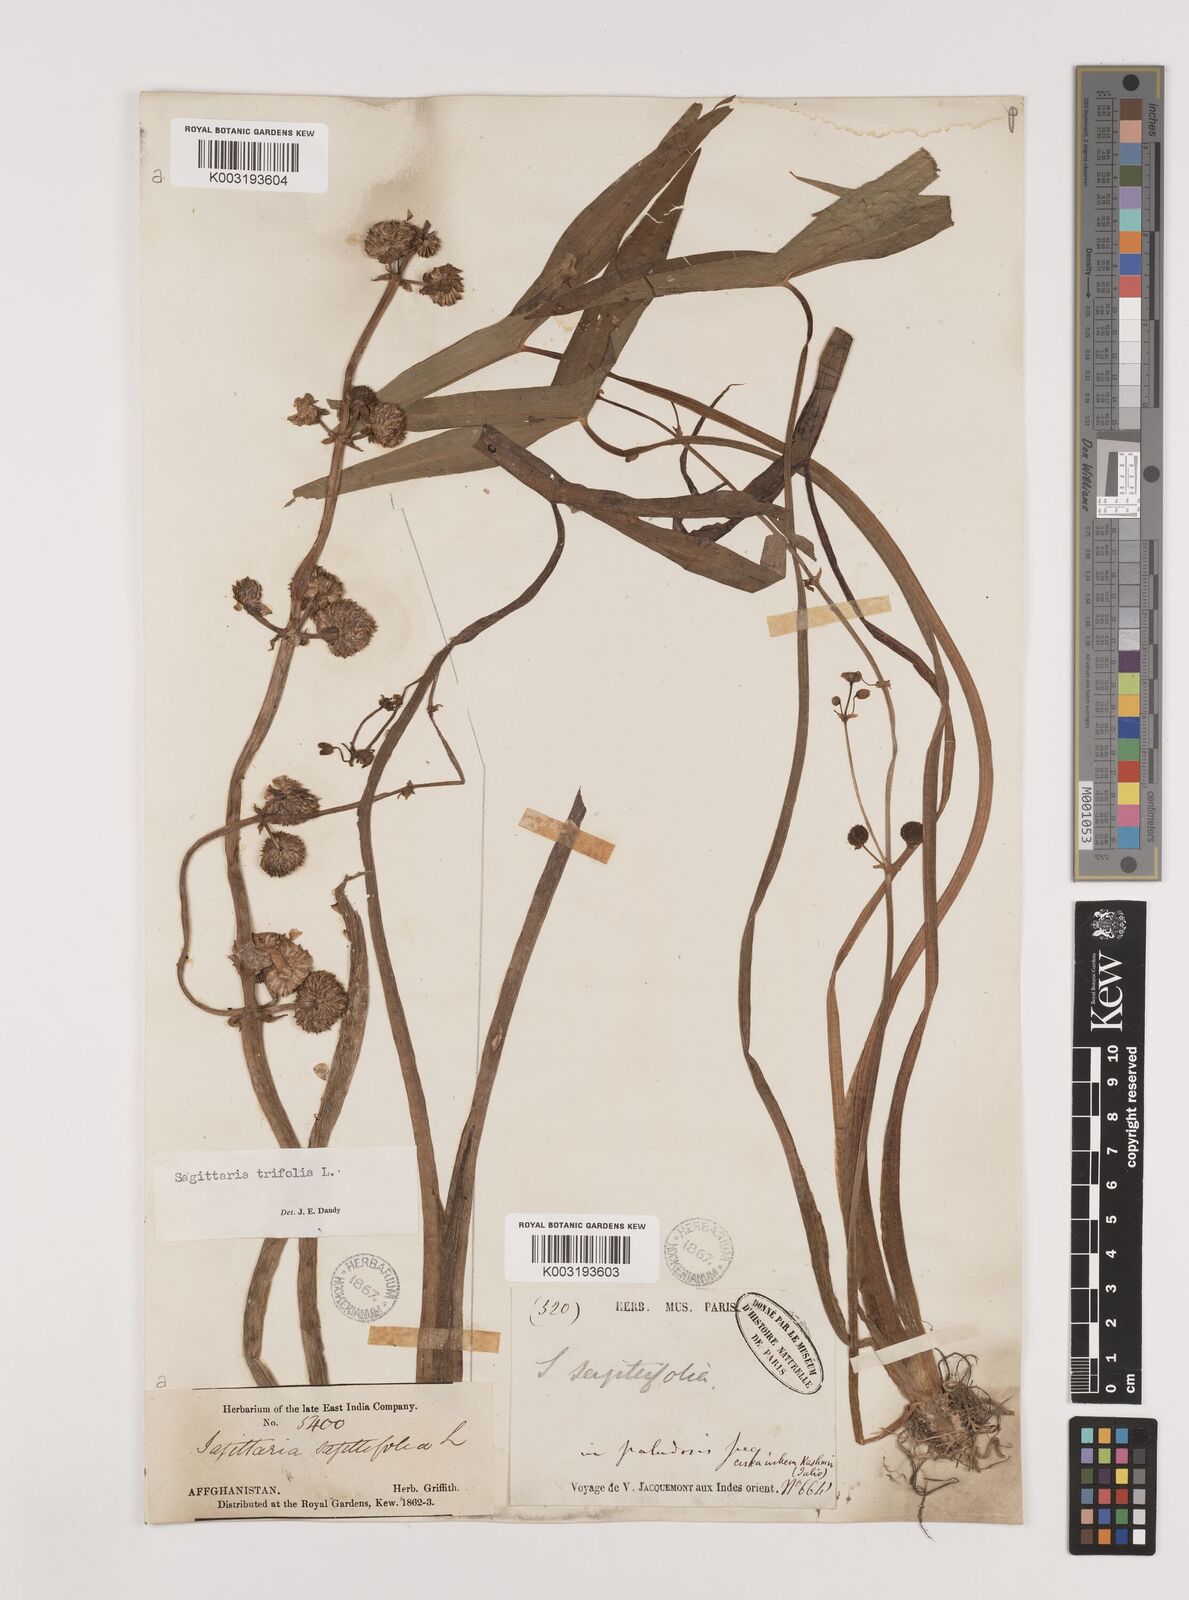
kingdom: Plantae
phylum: Tracheophyta
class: Liliopsida
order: Alismatales
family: Alismataceae
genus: Sagittaria
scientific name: Sagittaria sagittifolia
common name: Arrowhead
